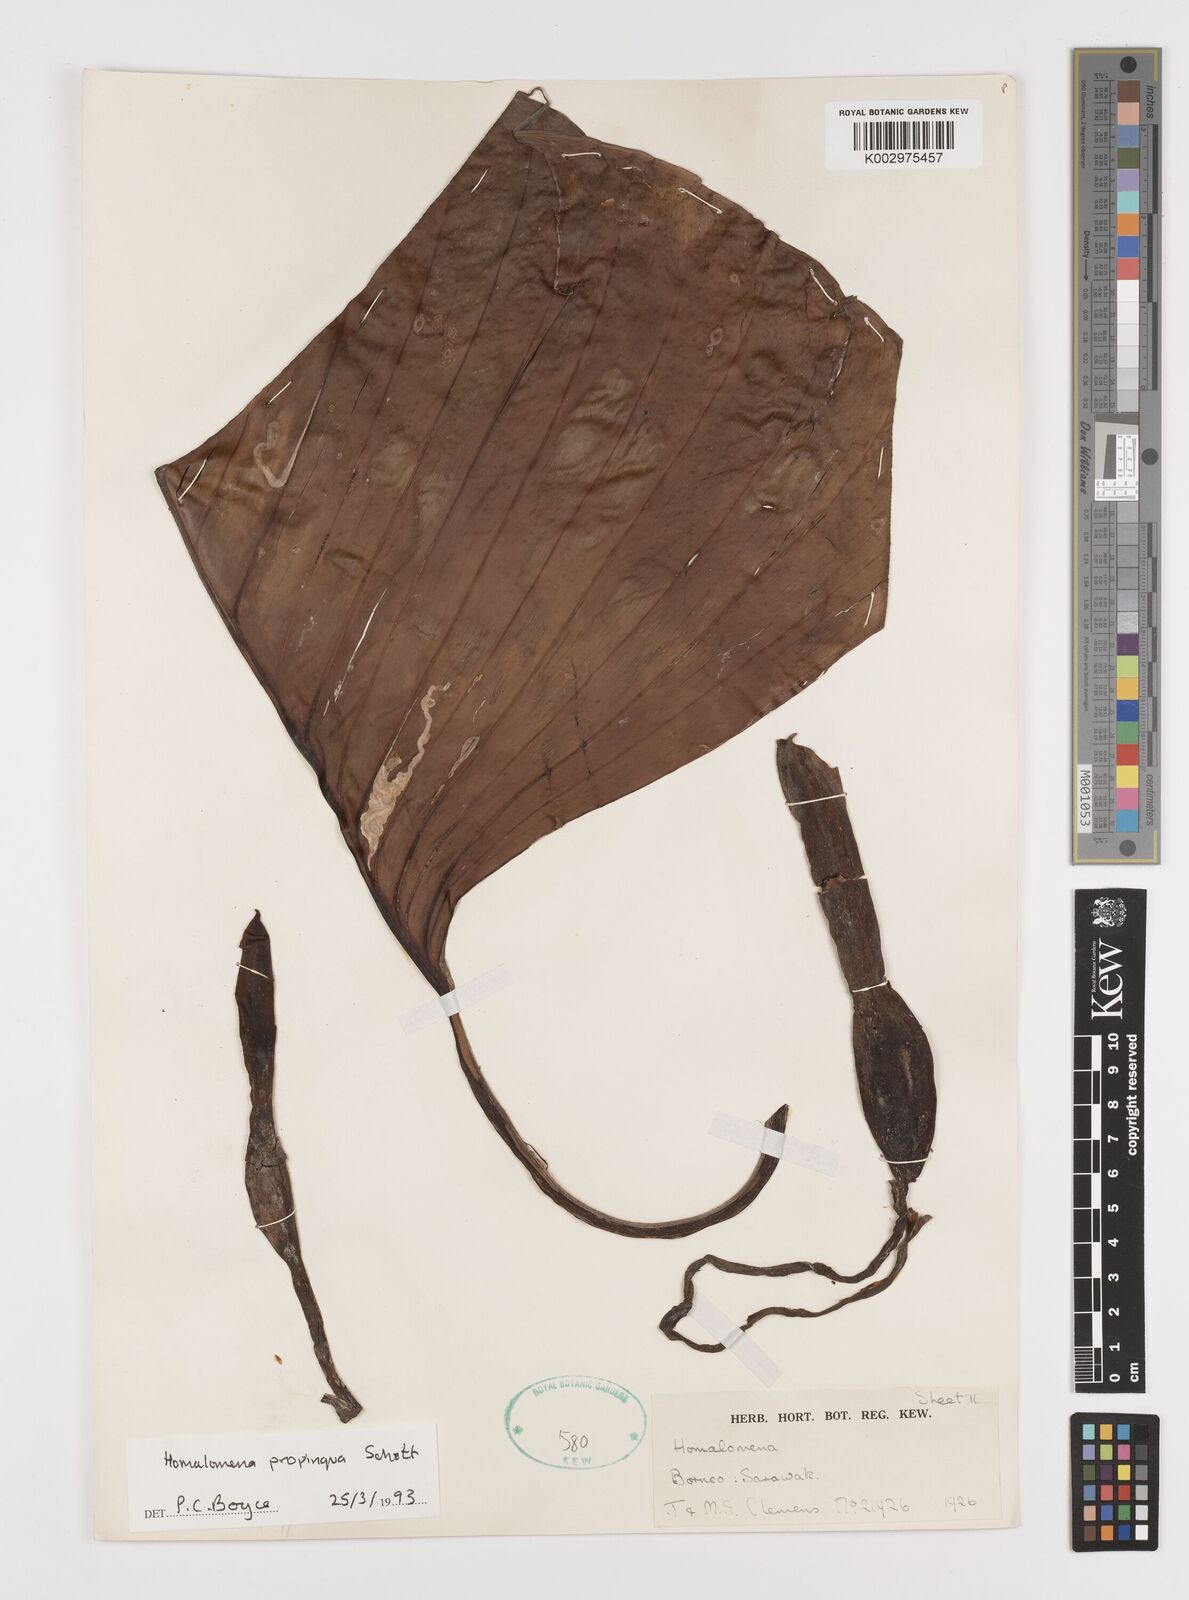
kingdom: Plantae
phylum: Tracheophyta
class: Liliopsida
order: Alismatales
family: Araceae
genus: Homalomena
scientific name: Homalomena humilis
